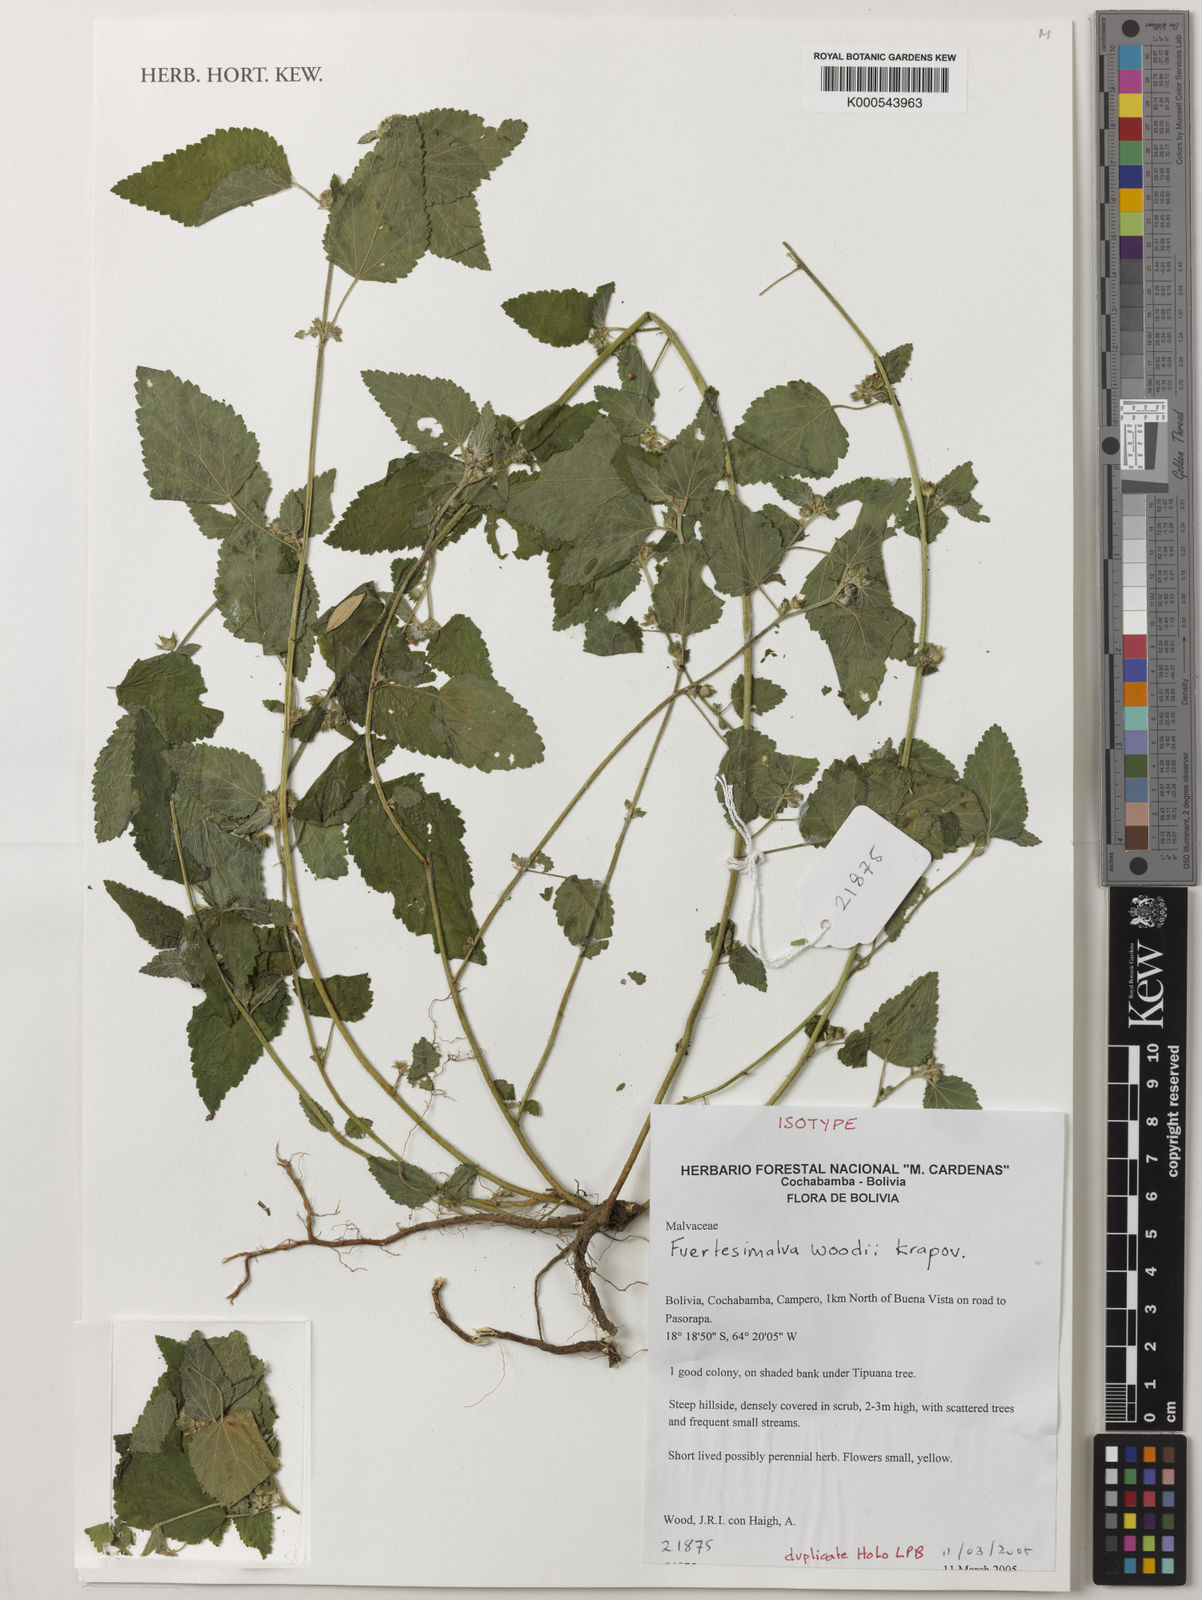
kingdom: Plantae
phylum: Tracheophyta
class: Magnoliopsida
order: Malvales
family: Malvaceae
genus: Fuertesimalva
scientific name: Fuertesimalva
